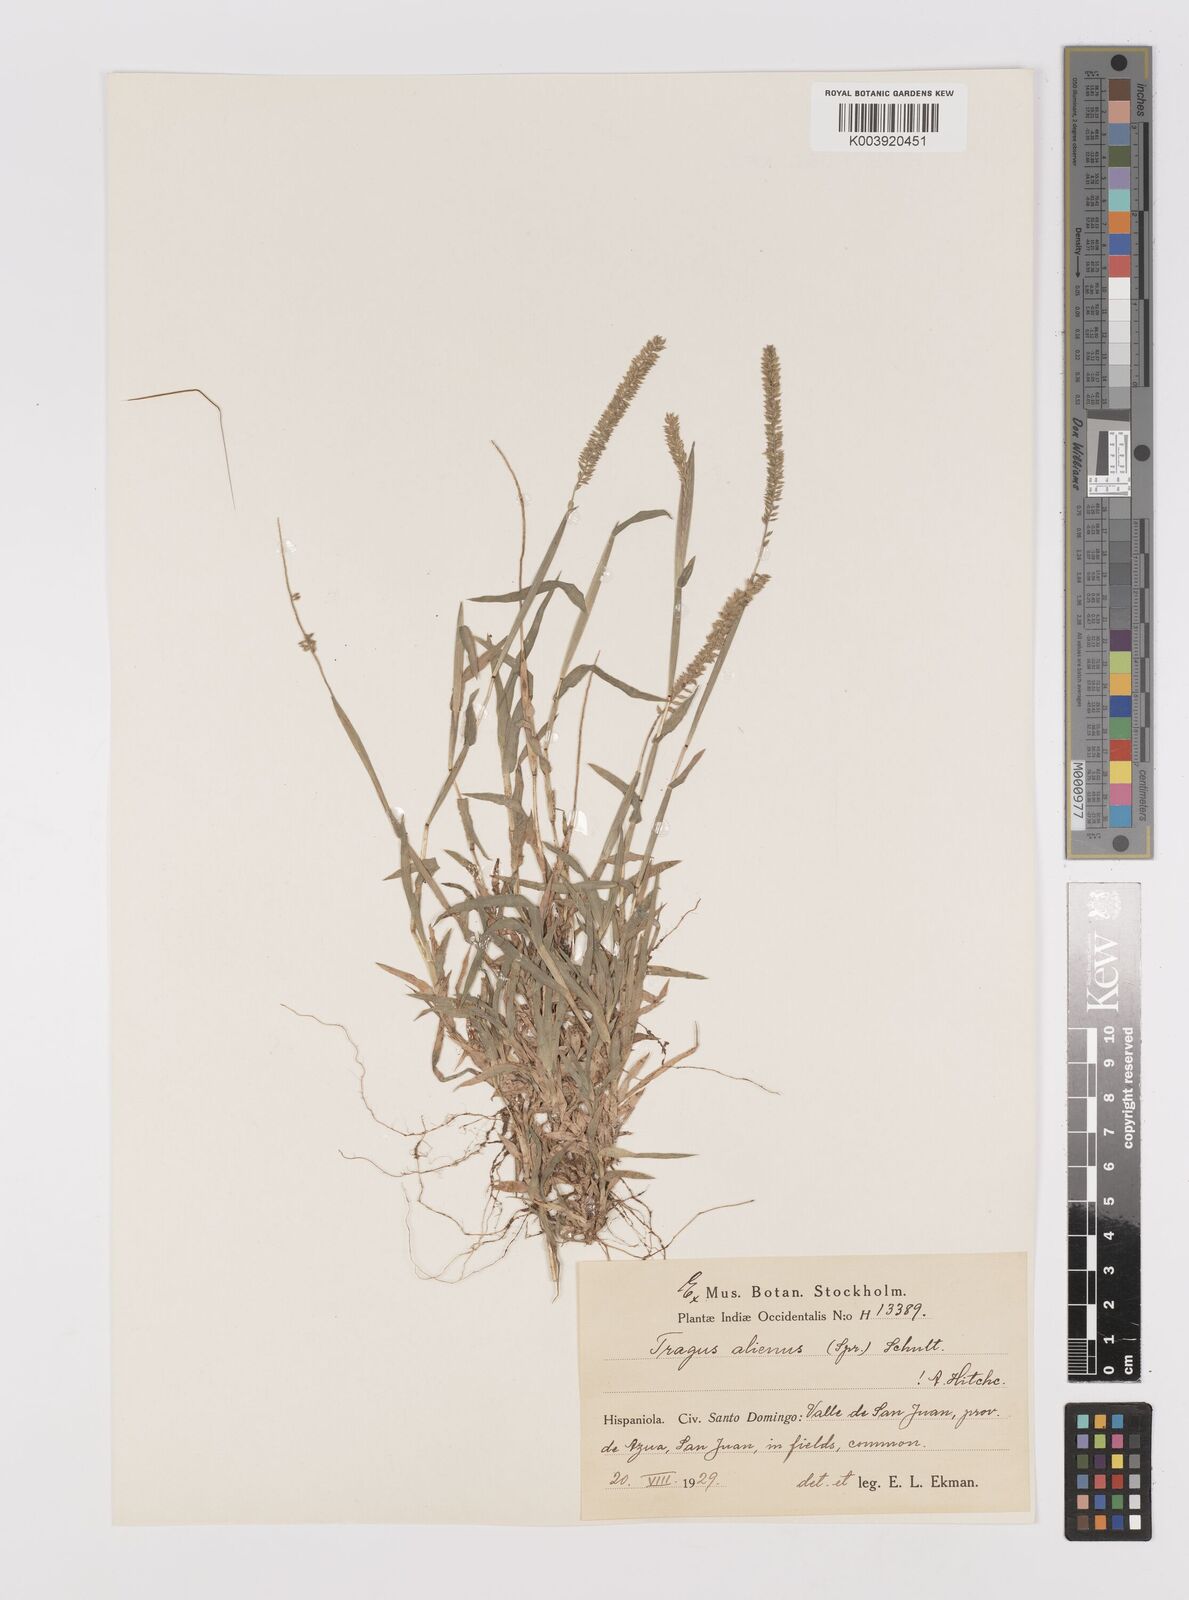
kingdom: Plantae
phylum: Tracheophyta
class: Liliopsida
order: Poales
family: Poaceae
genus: Tragus
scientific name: Tragus berteronianus
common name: African bur-grass
